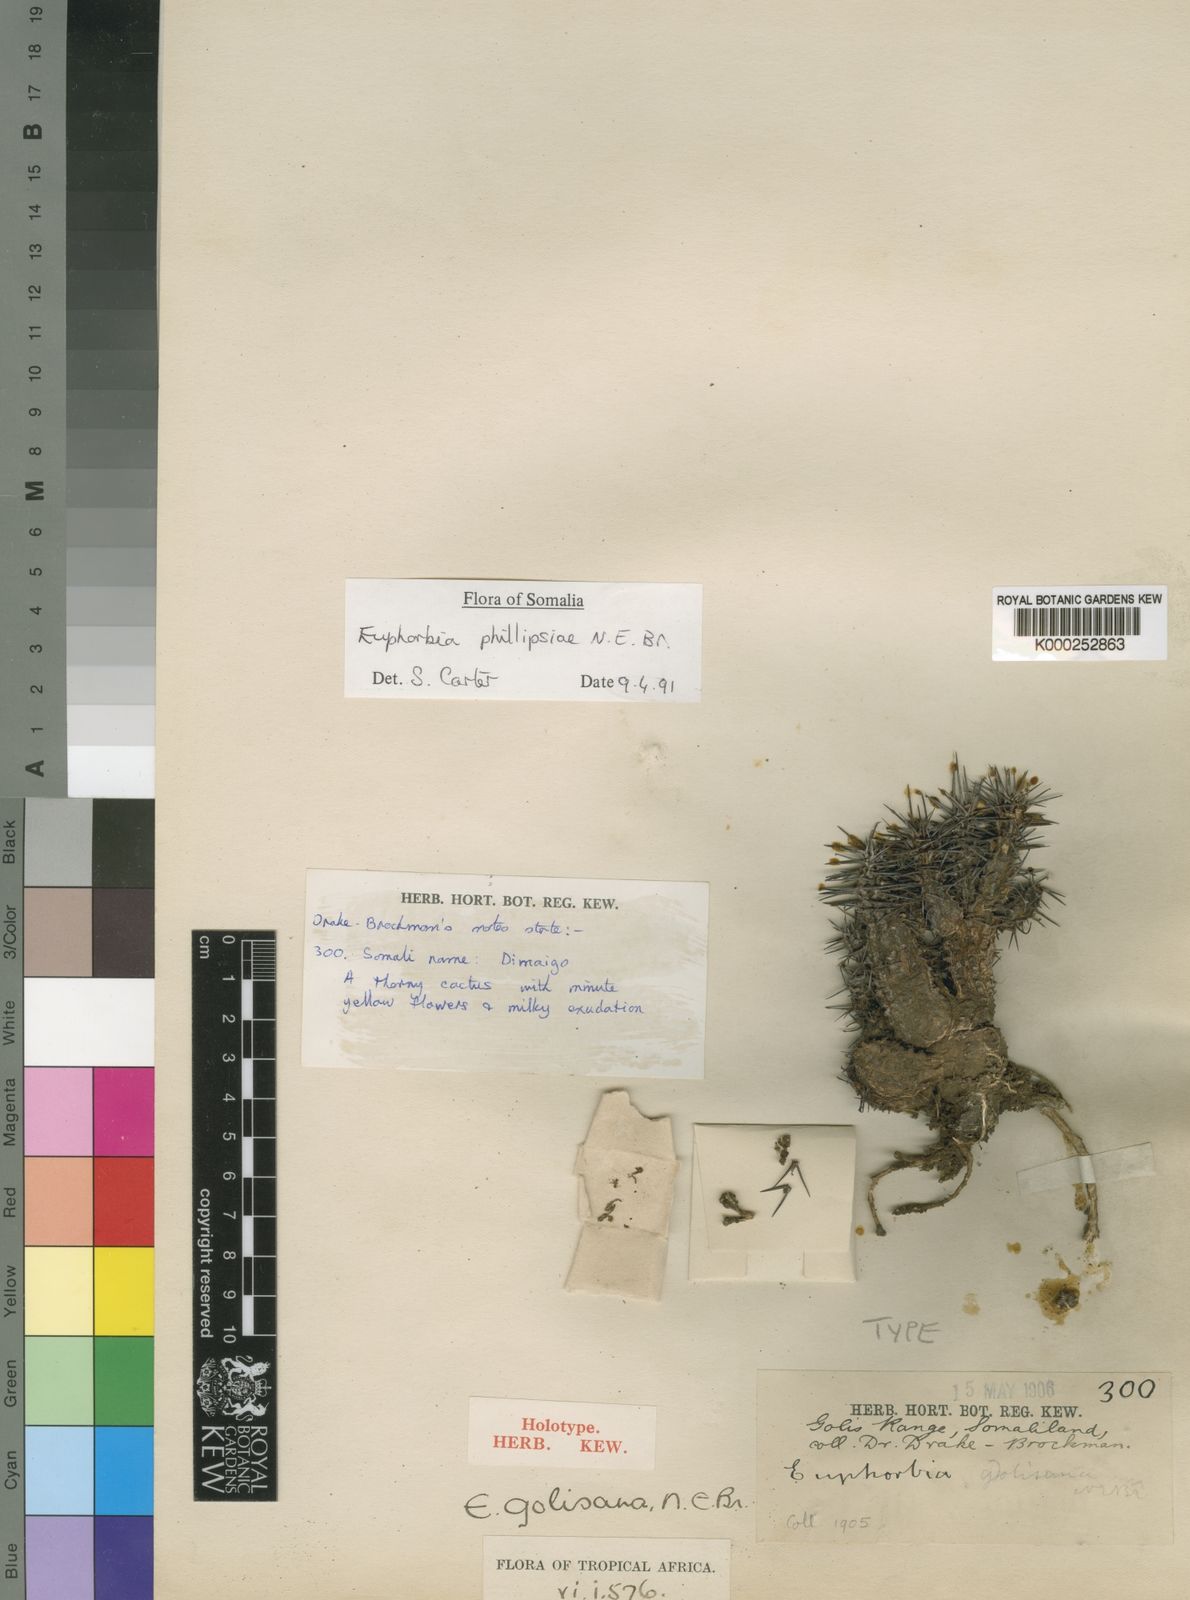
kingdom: Plantae
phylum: Tracheophyta
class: Magnoliopsida
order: Malpighiales
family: Euphorbiaceae
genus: Euphorbia
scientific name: Euphorbia phillipsiae
